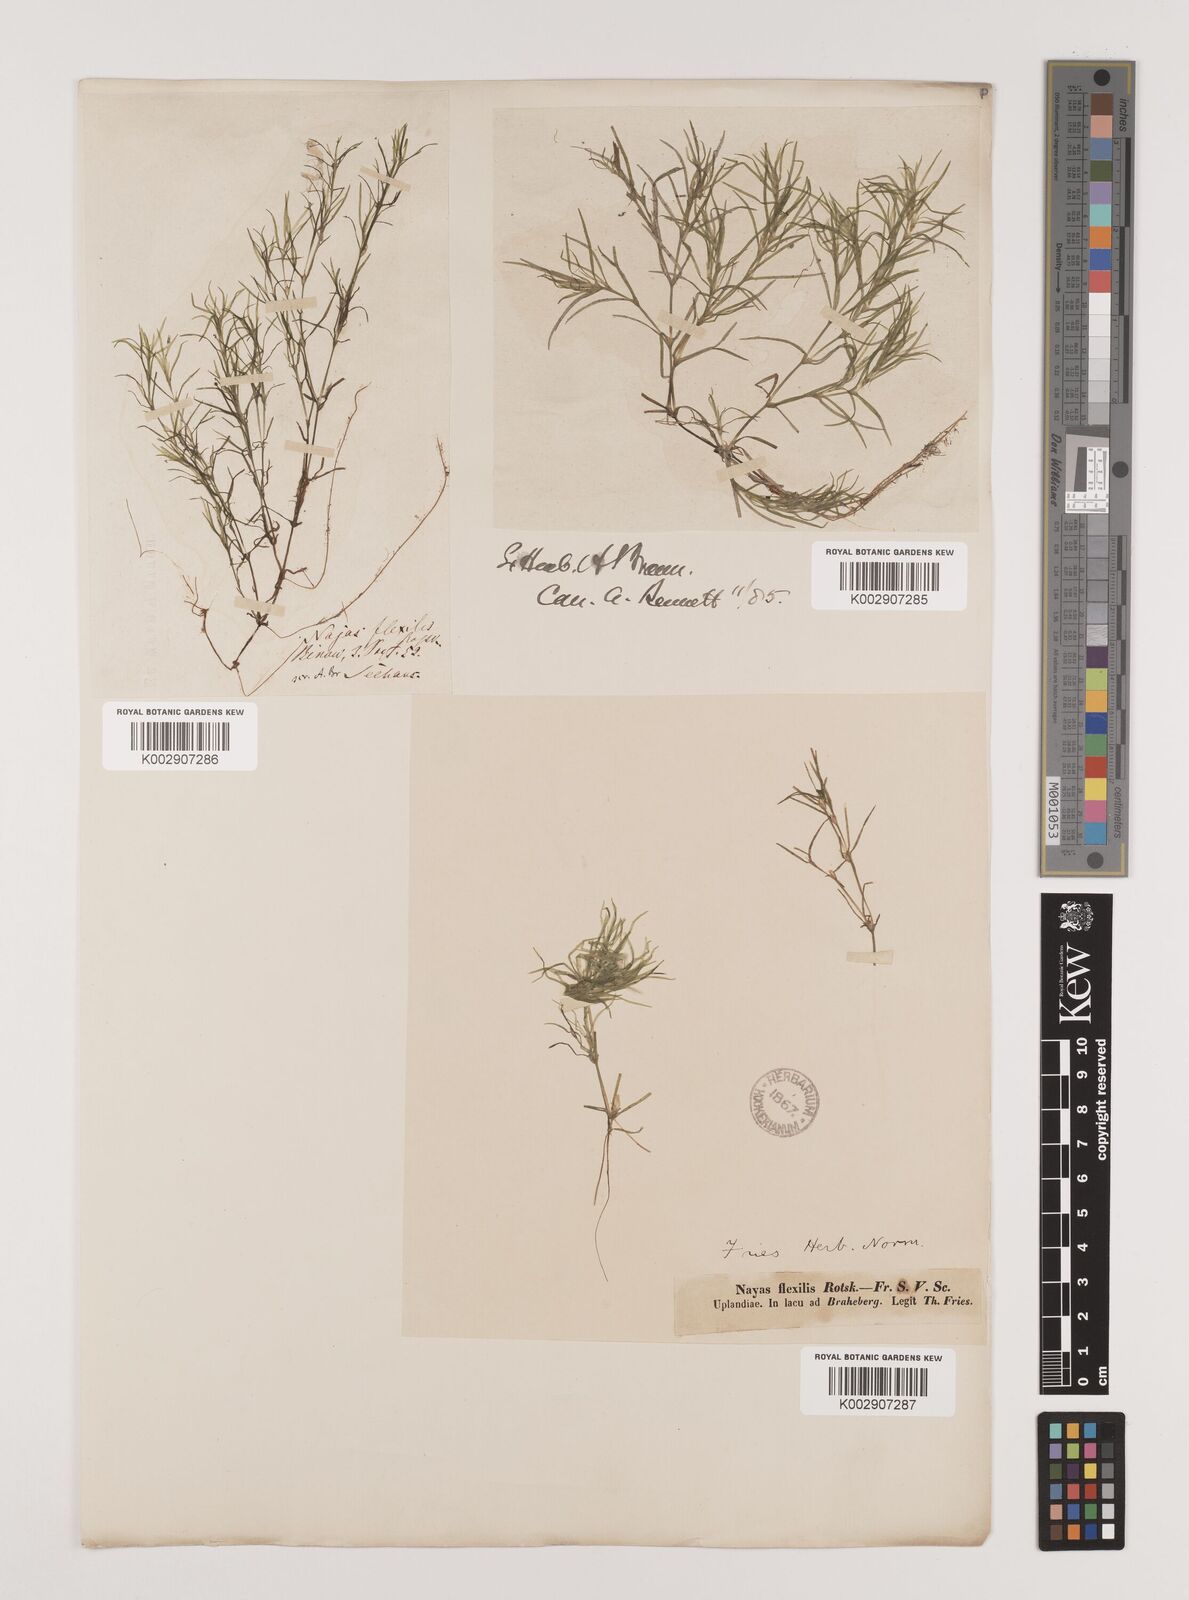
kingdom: Plantae
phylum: Tracheophyta
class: Liliopsida
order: Alismatales
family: Hydrocharitaceae
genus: Najas
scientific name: Najas flexilis
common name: Slender naiad
